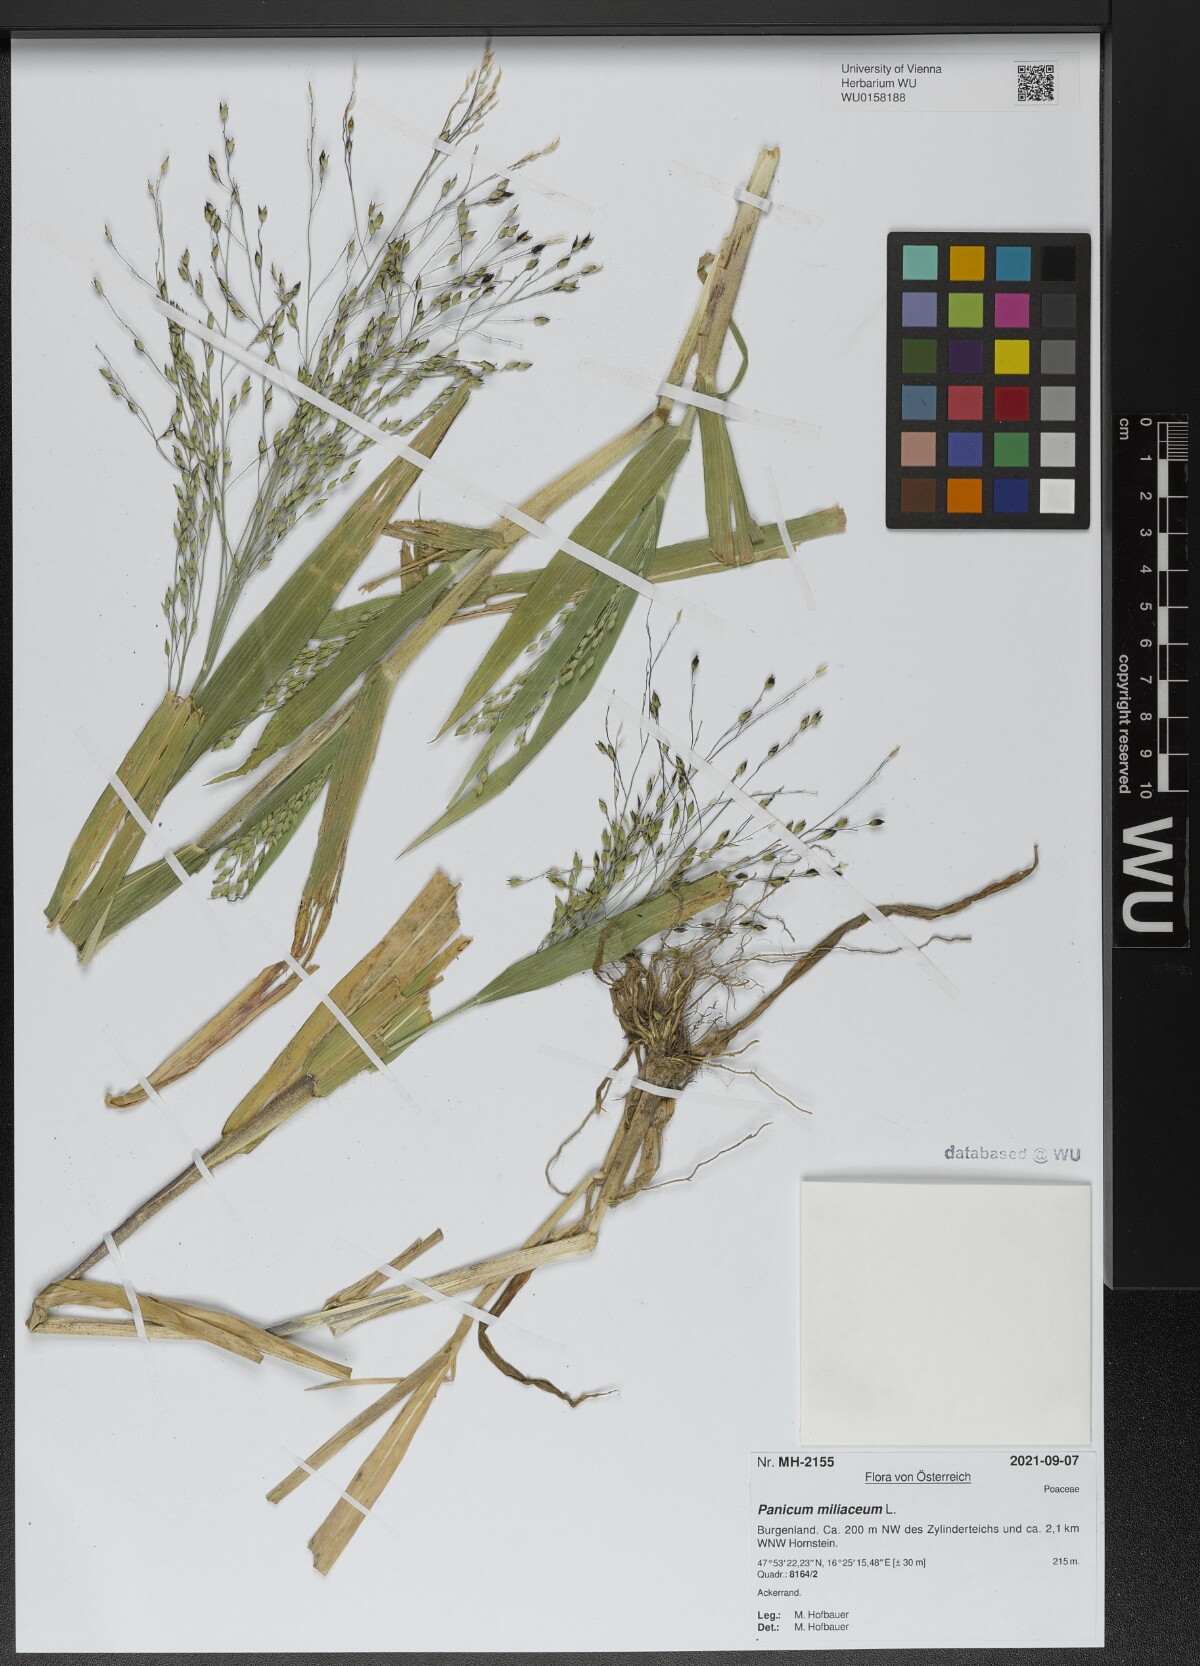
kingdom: Plantae
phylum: Tracheophyta
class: Liliopsida
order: Poales
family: Poaceae
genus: Panicum
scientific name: Panicum miliaceum
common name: Common millet
